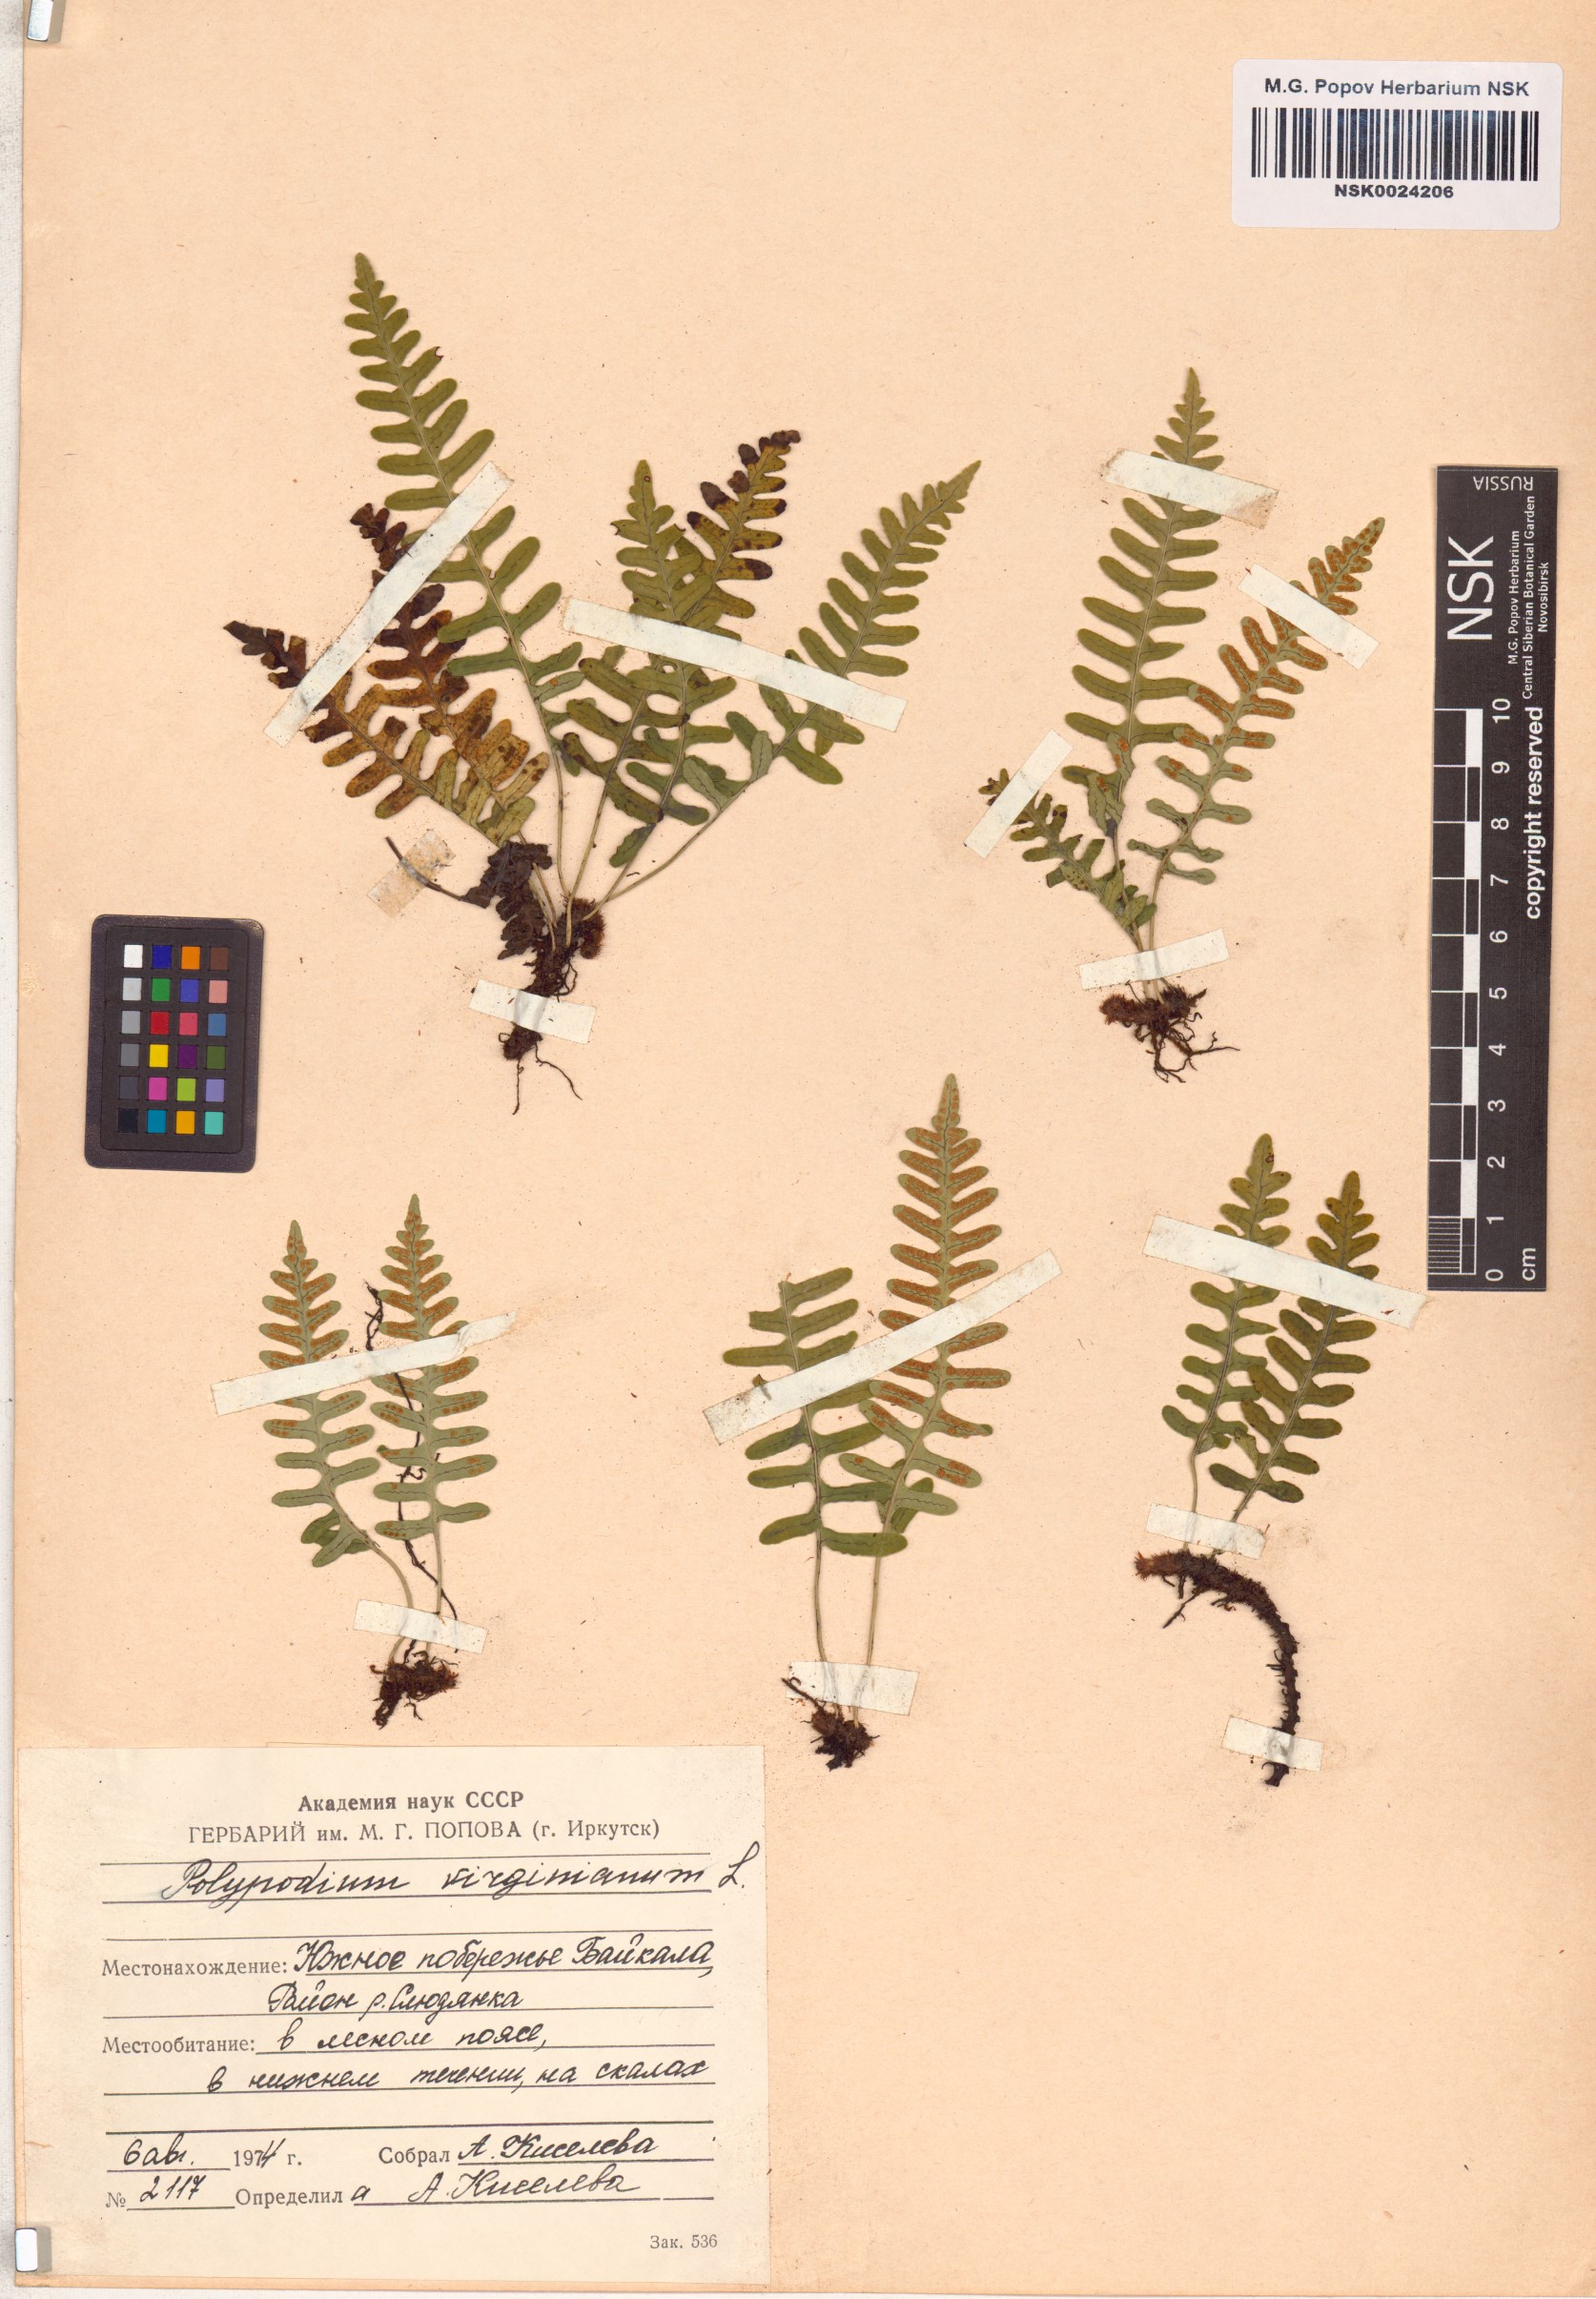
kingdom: Plantae
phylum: Tracheophyta
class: Polypodiopsida
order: Polypodiales
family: Polypodiaceae
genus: Polypodium
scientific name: Polypodium virginianum
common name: American wall fern
